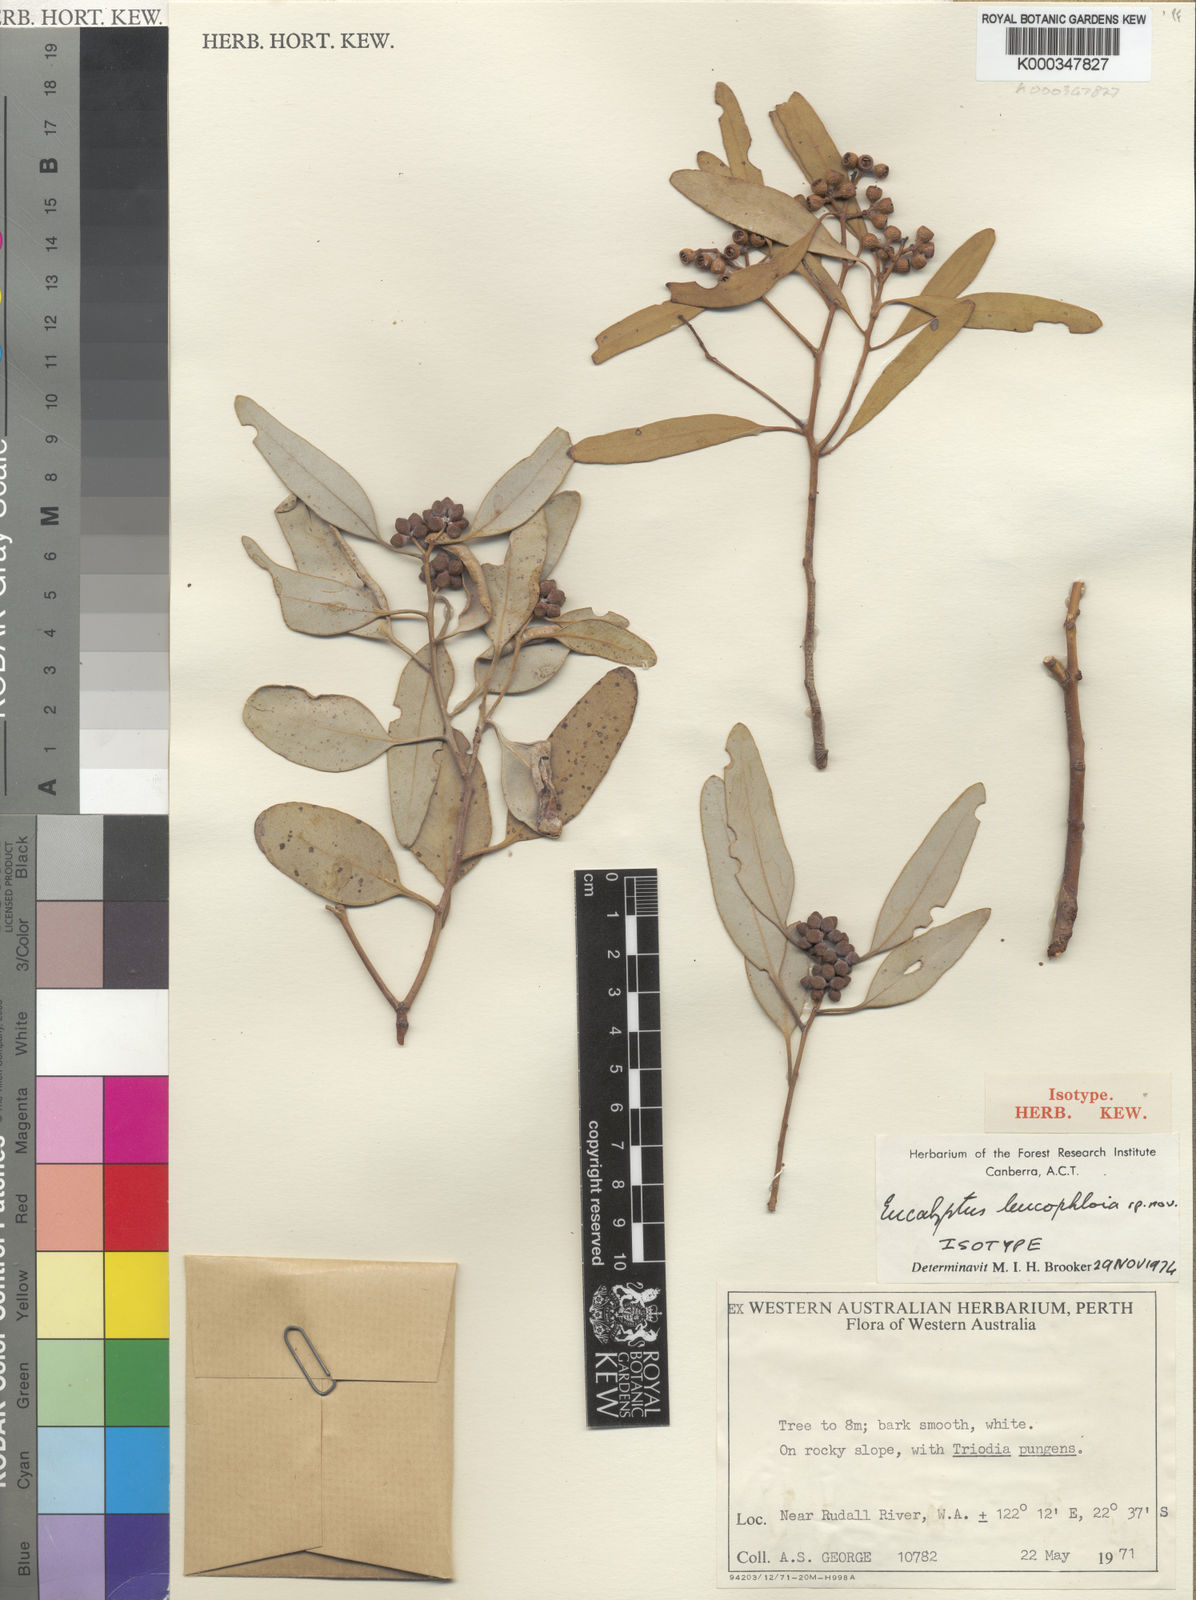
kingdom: Plantae
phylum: Tracheophyta
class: Magnoliopsida
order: Myrtales
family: Myrtaceae
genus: Eucalyptus
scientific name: Eucalyptus leucophloia
